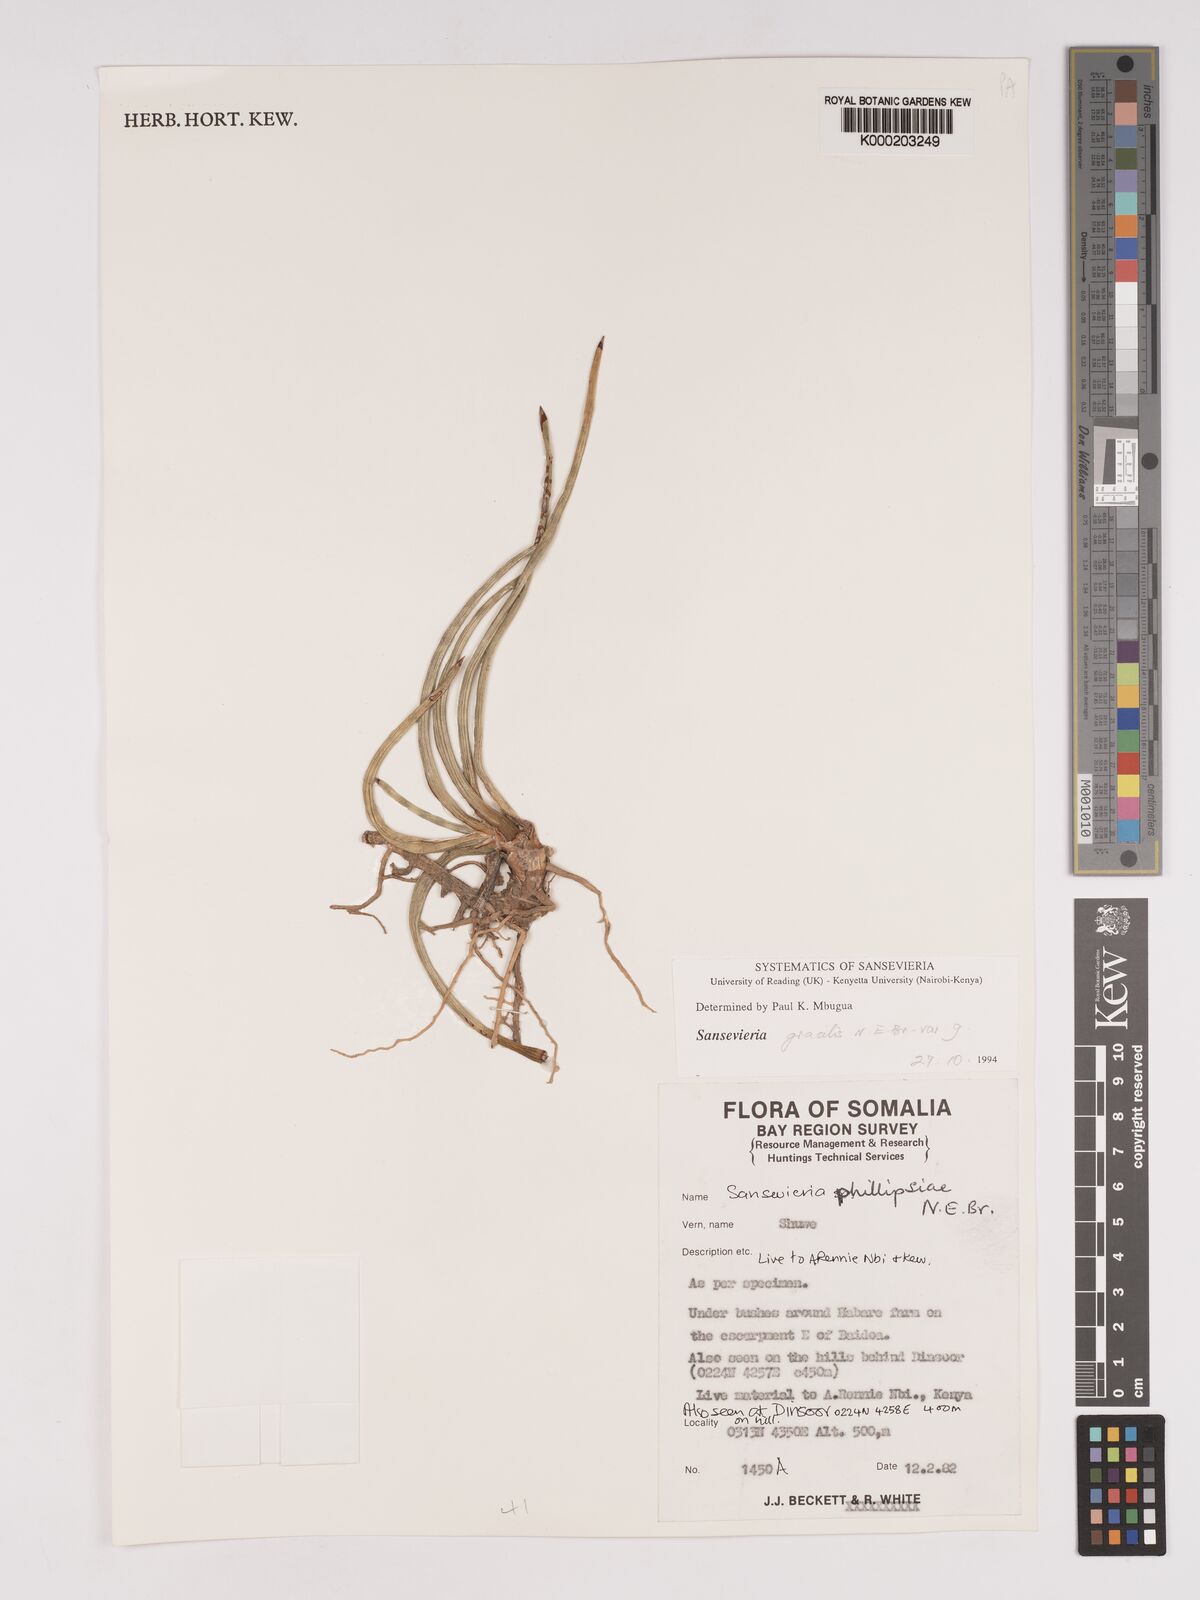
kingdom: Plantae
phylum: Tracheophyta
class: Liliopsida
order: Asparagales
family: Asparagaceae
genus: Dracaena
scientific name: Dracaena phillipsiae
